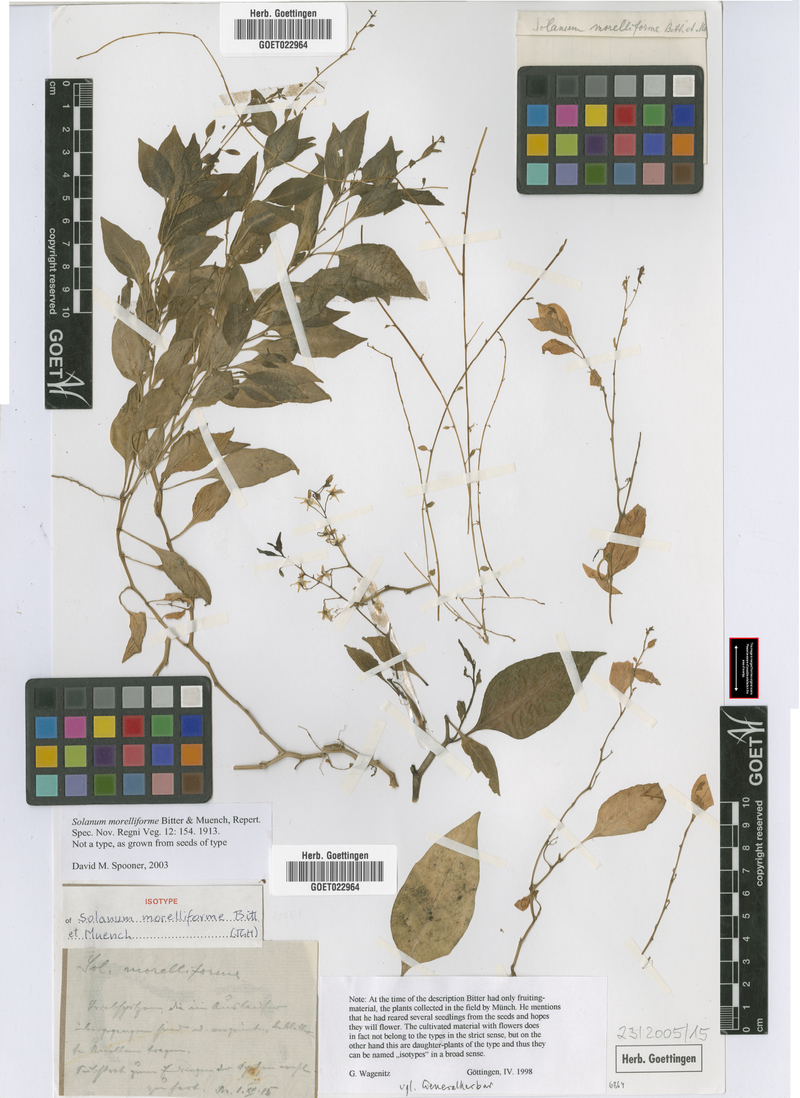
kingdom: Plantae
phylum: Tracheophyta
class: Magnoliopsida
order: Solanales
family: Solanaceae
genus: Solanum
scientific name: Solanum morelliforme
